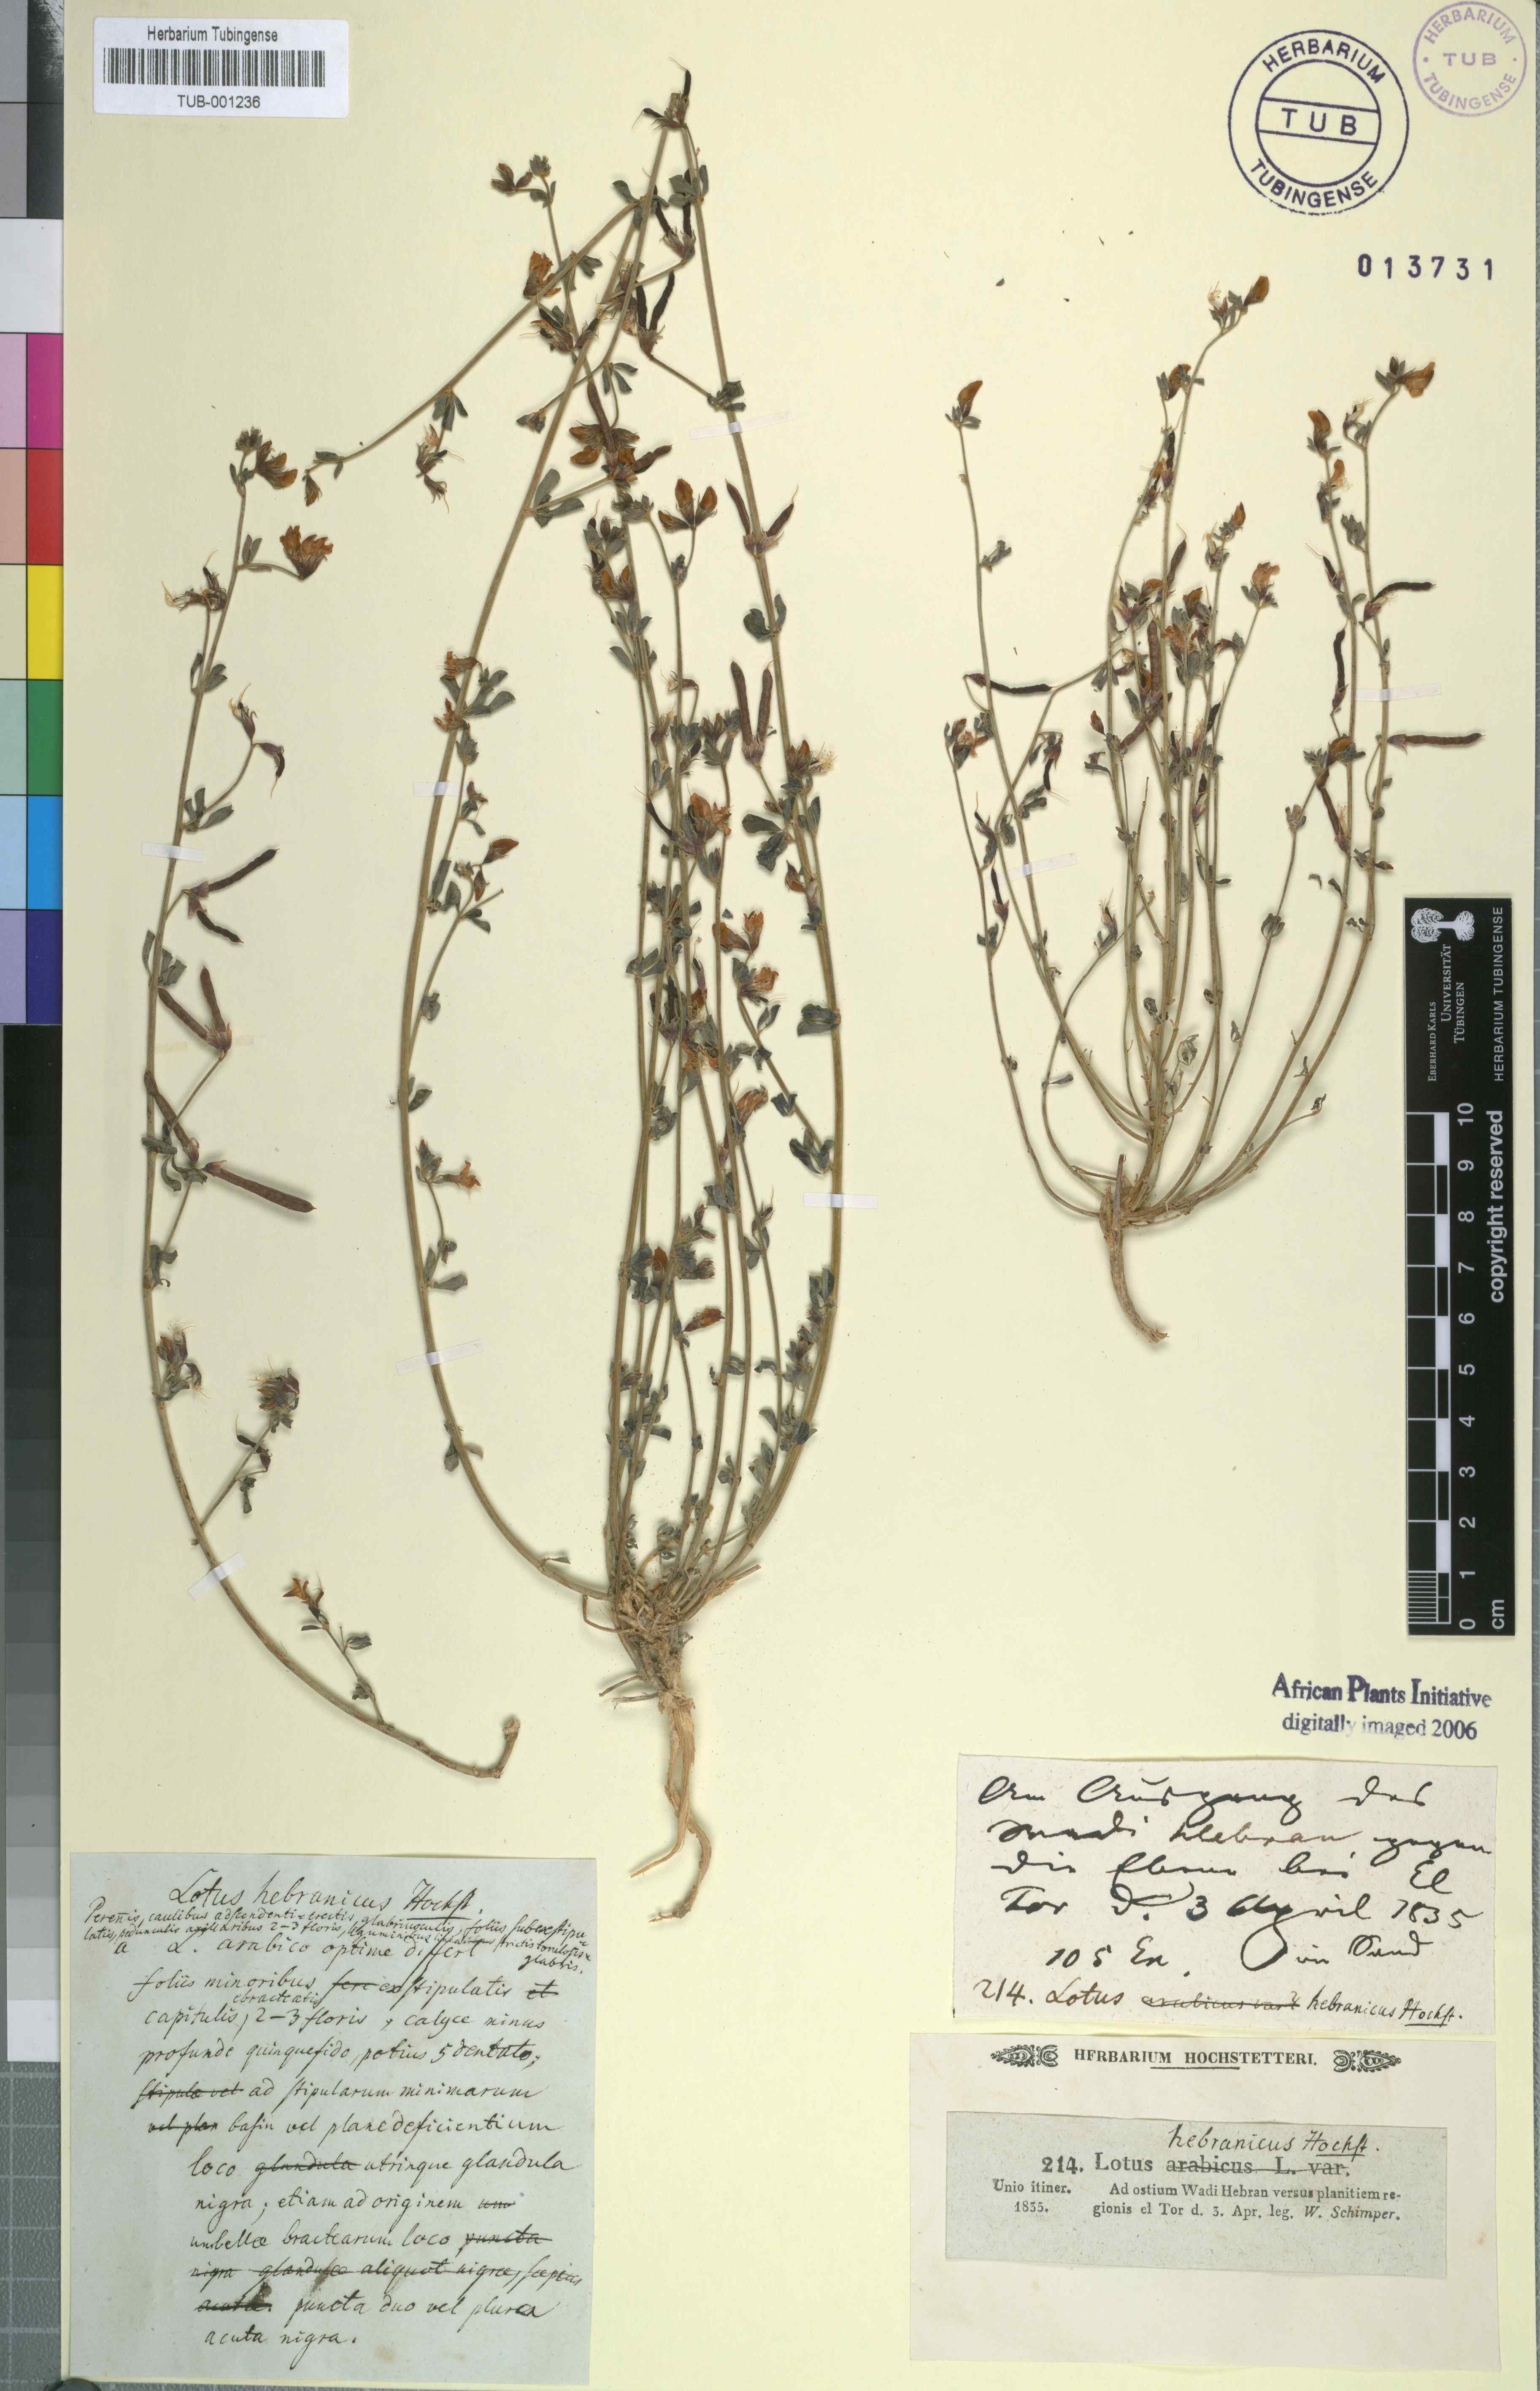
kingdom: Plantae
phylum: Tracheophyta
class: Magnoliopsida
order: Fabales
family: Fabaceae
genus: Lotus
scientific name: Lotus hebranicus
